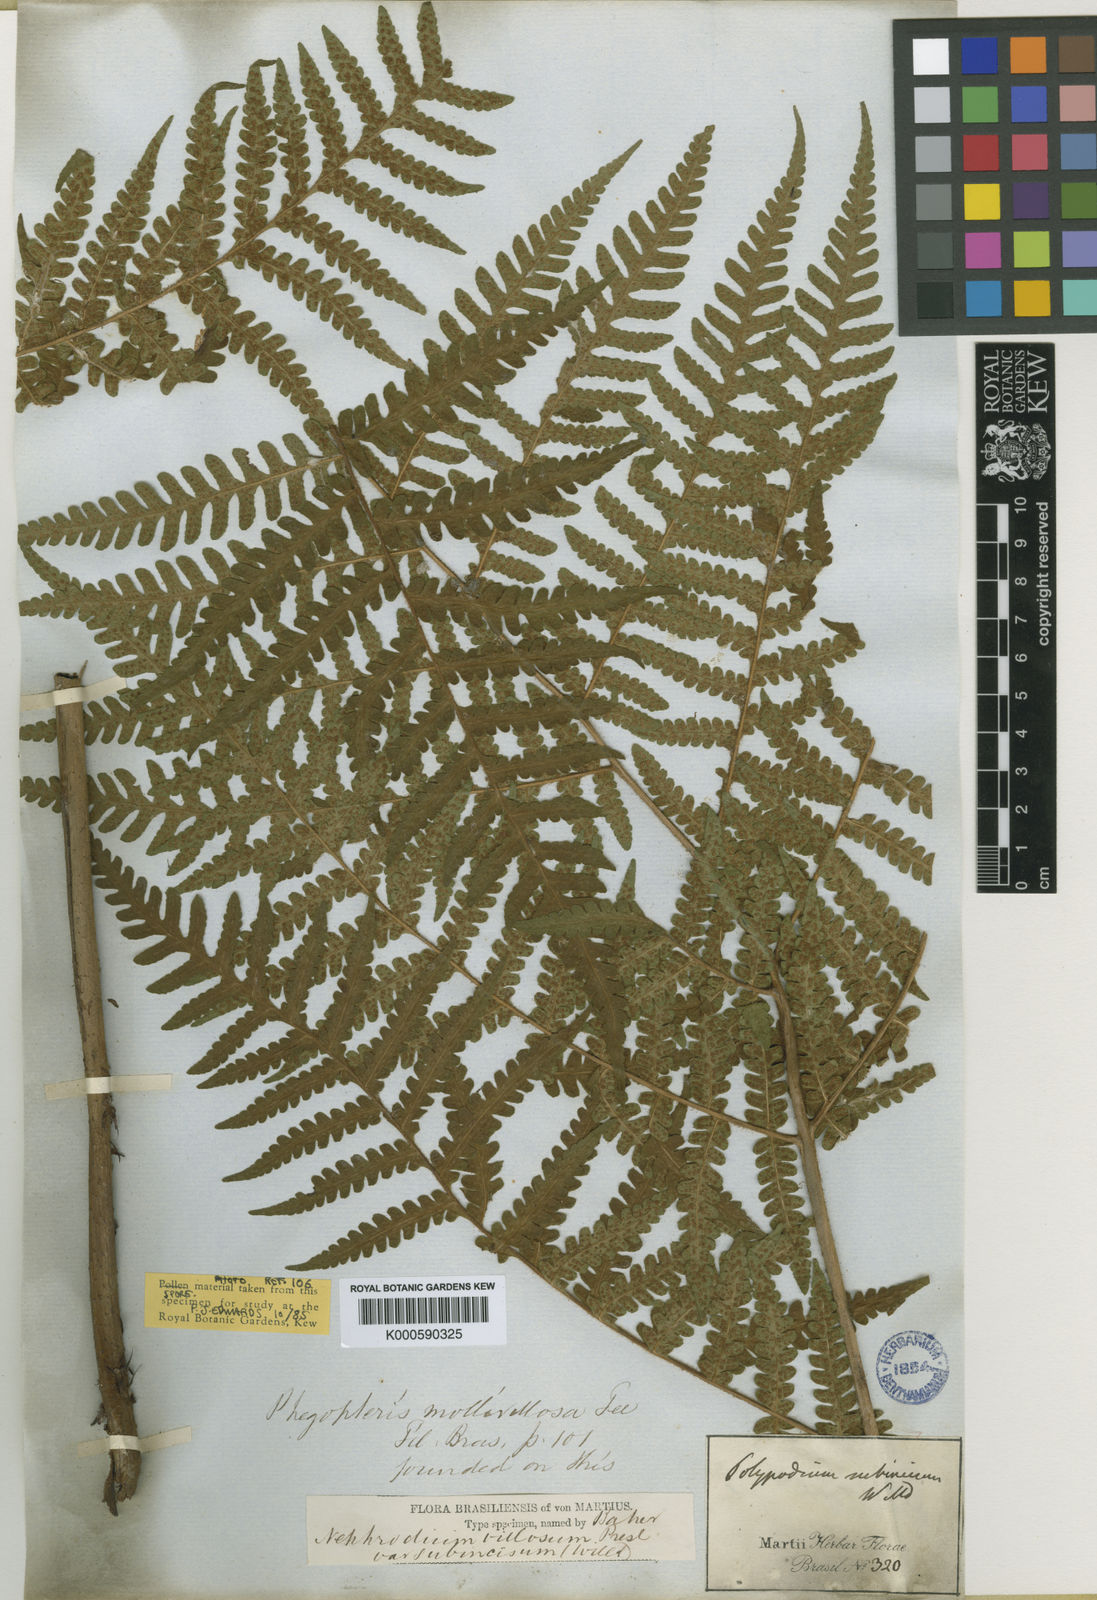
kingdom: Plantae
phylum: Tracheophyta
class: Polypodiopsida
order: Polypodiales
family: Dryopteridaceae
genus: Megalastrum
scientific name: Megalastrum canescens
